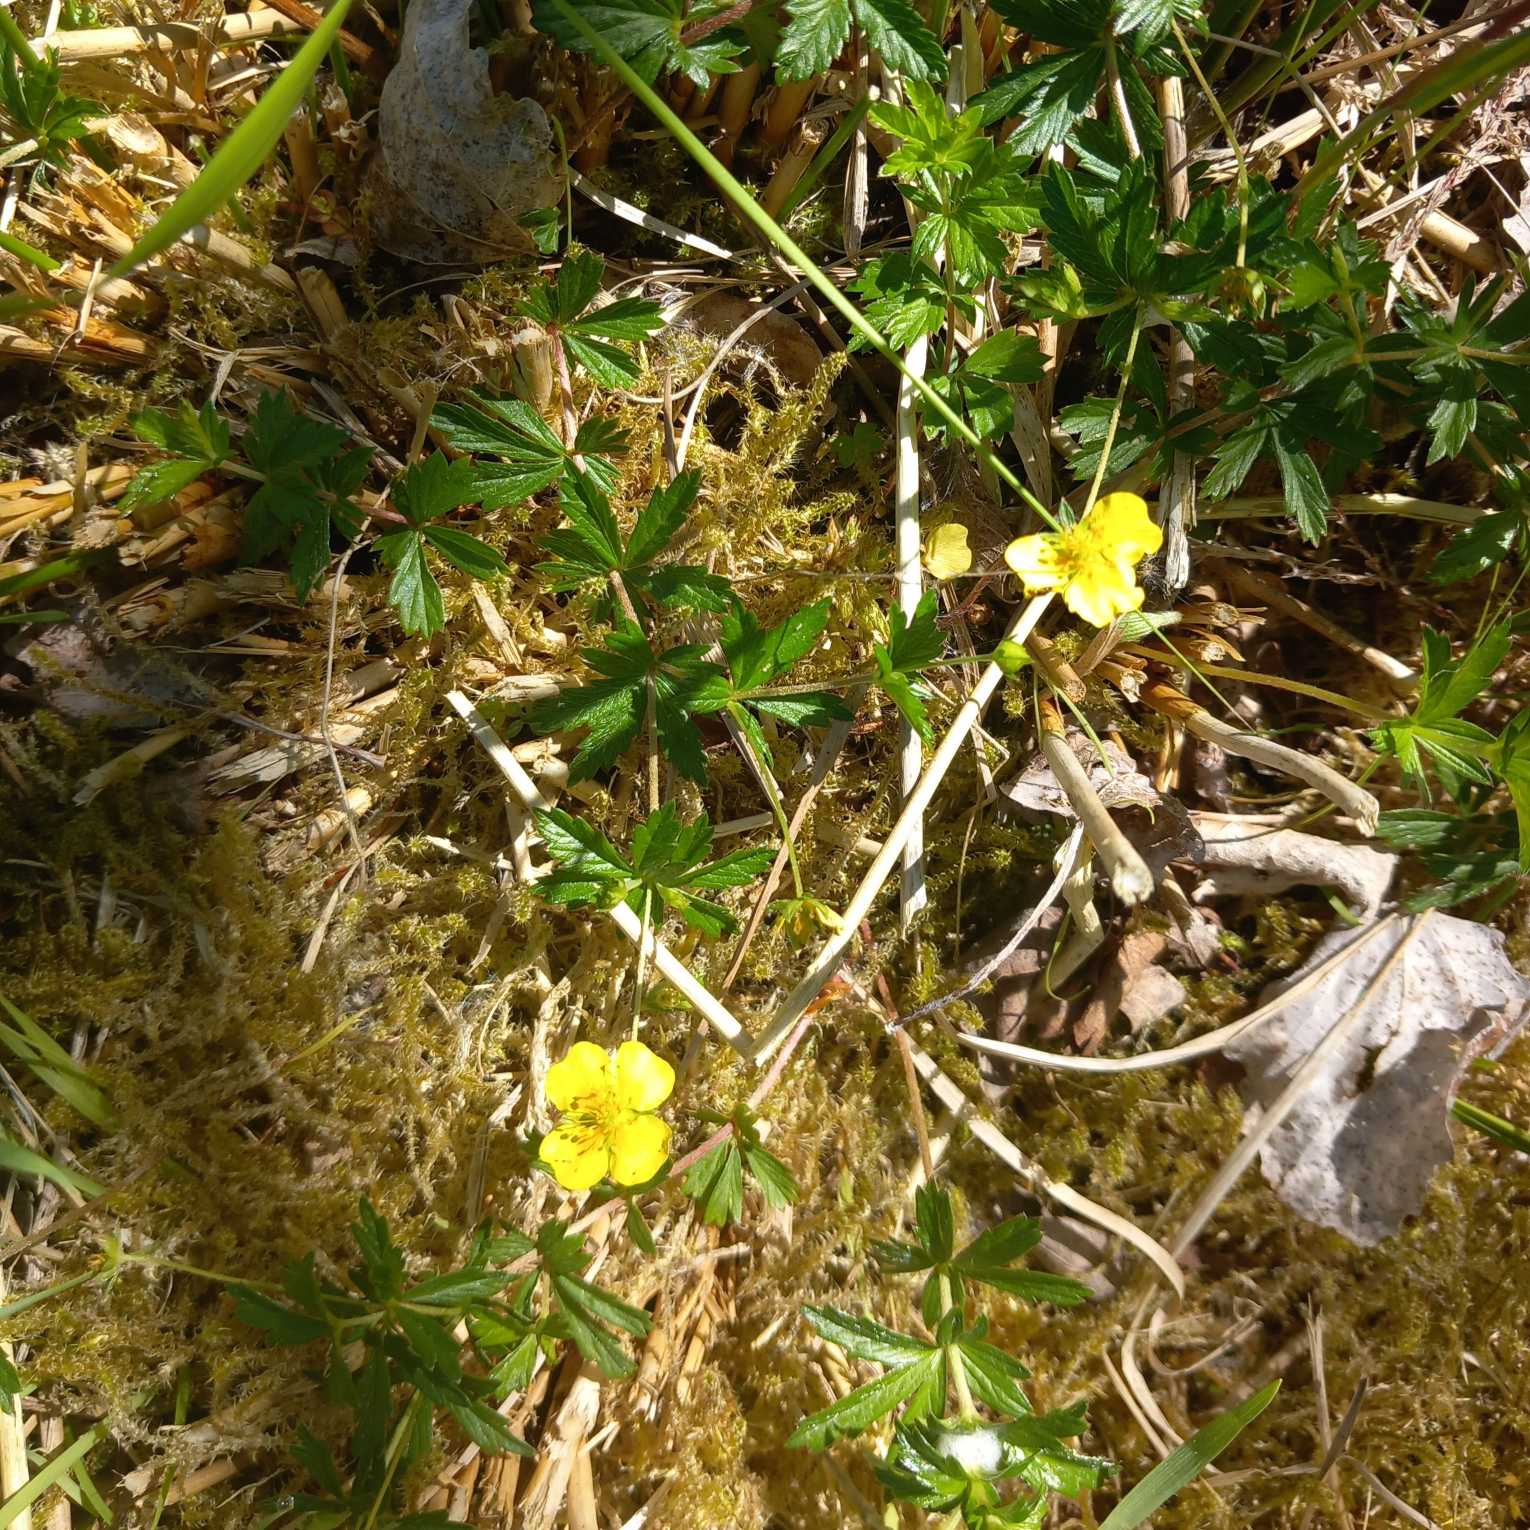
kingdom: Plantae
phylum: Tracheophyta
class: Magnoliopsida
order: Rosales
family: Rosaceae
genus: Potentilla
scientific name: Potentilla erecta
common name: Tormentil
